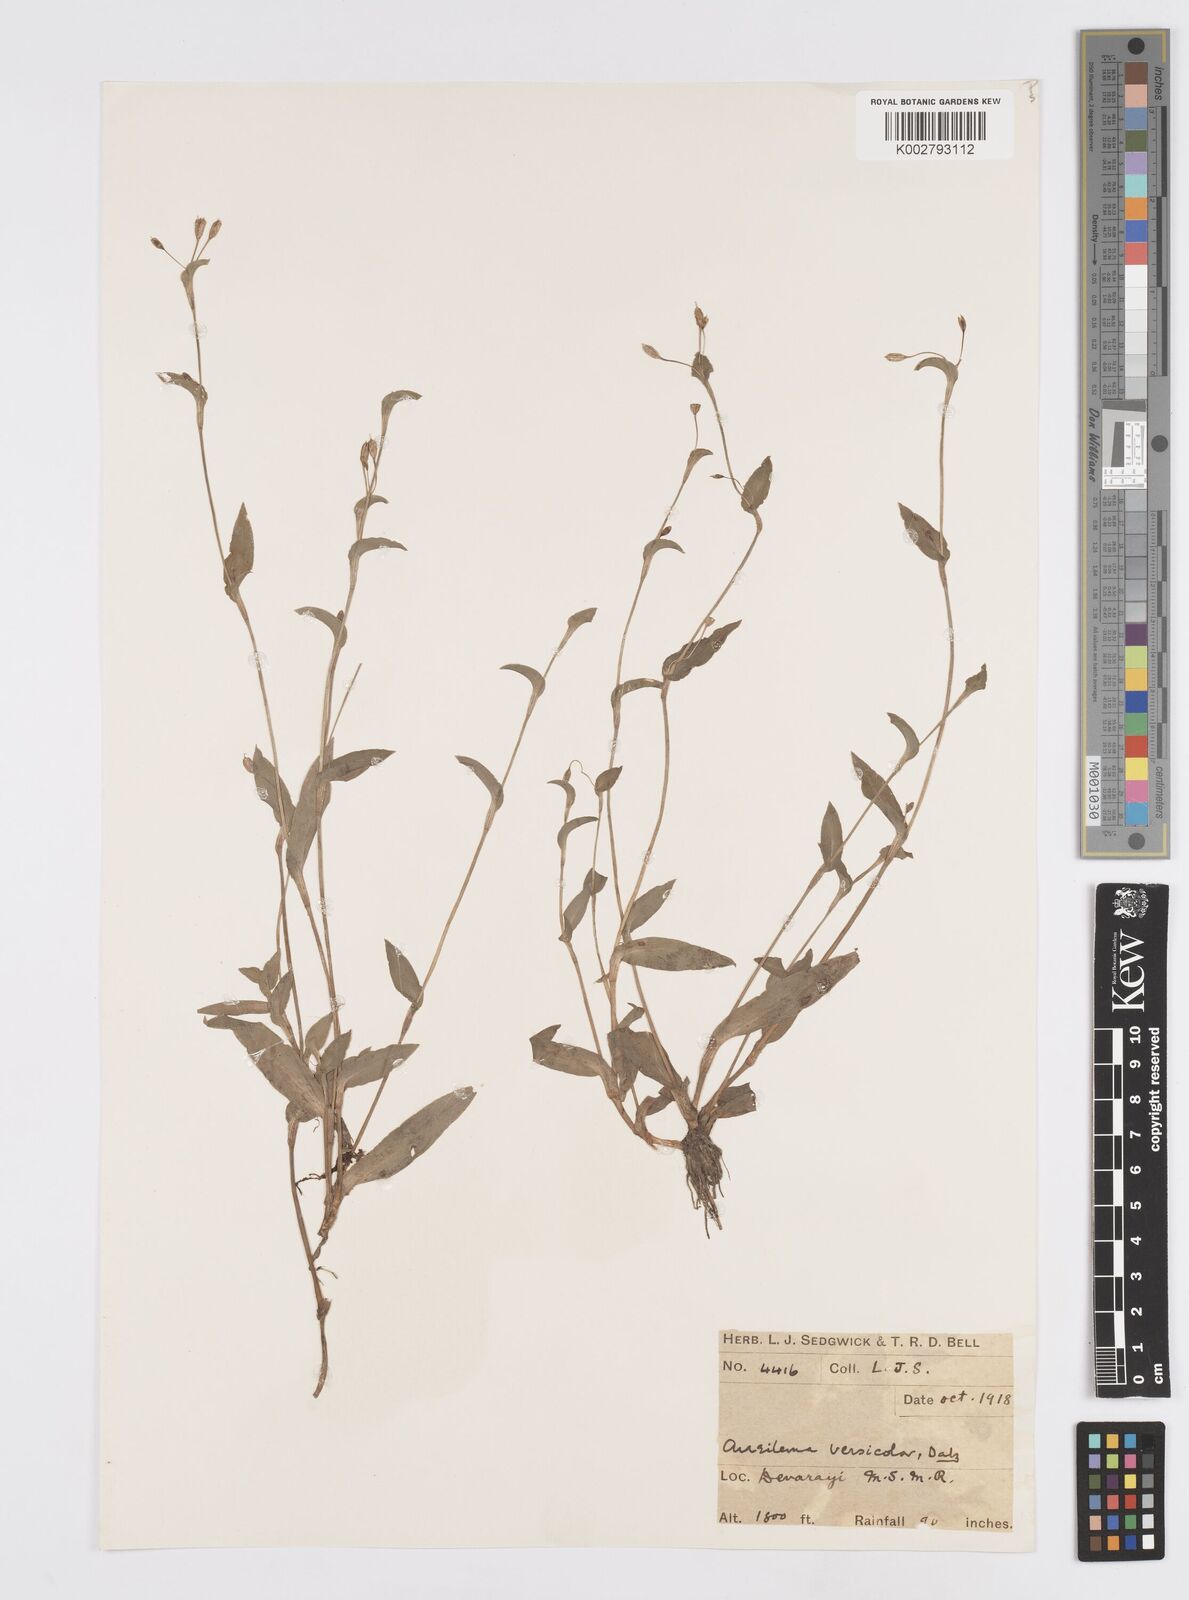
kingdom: Plantae
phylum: Tracheophyta
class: Liliopsida
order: Commelinales
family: Commelinaceae
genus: Murdannia
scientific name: Murdannia versicolor
